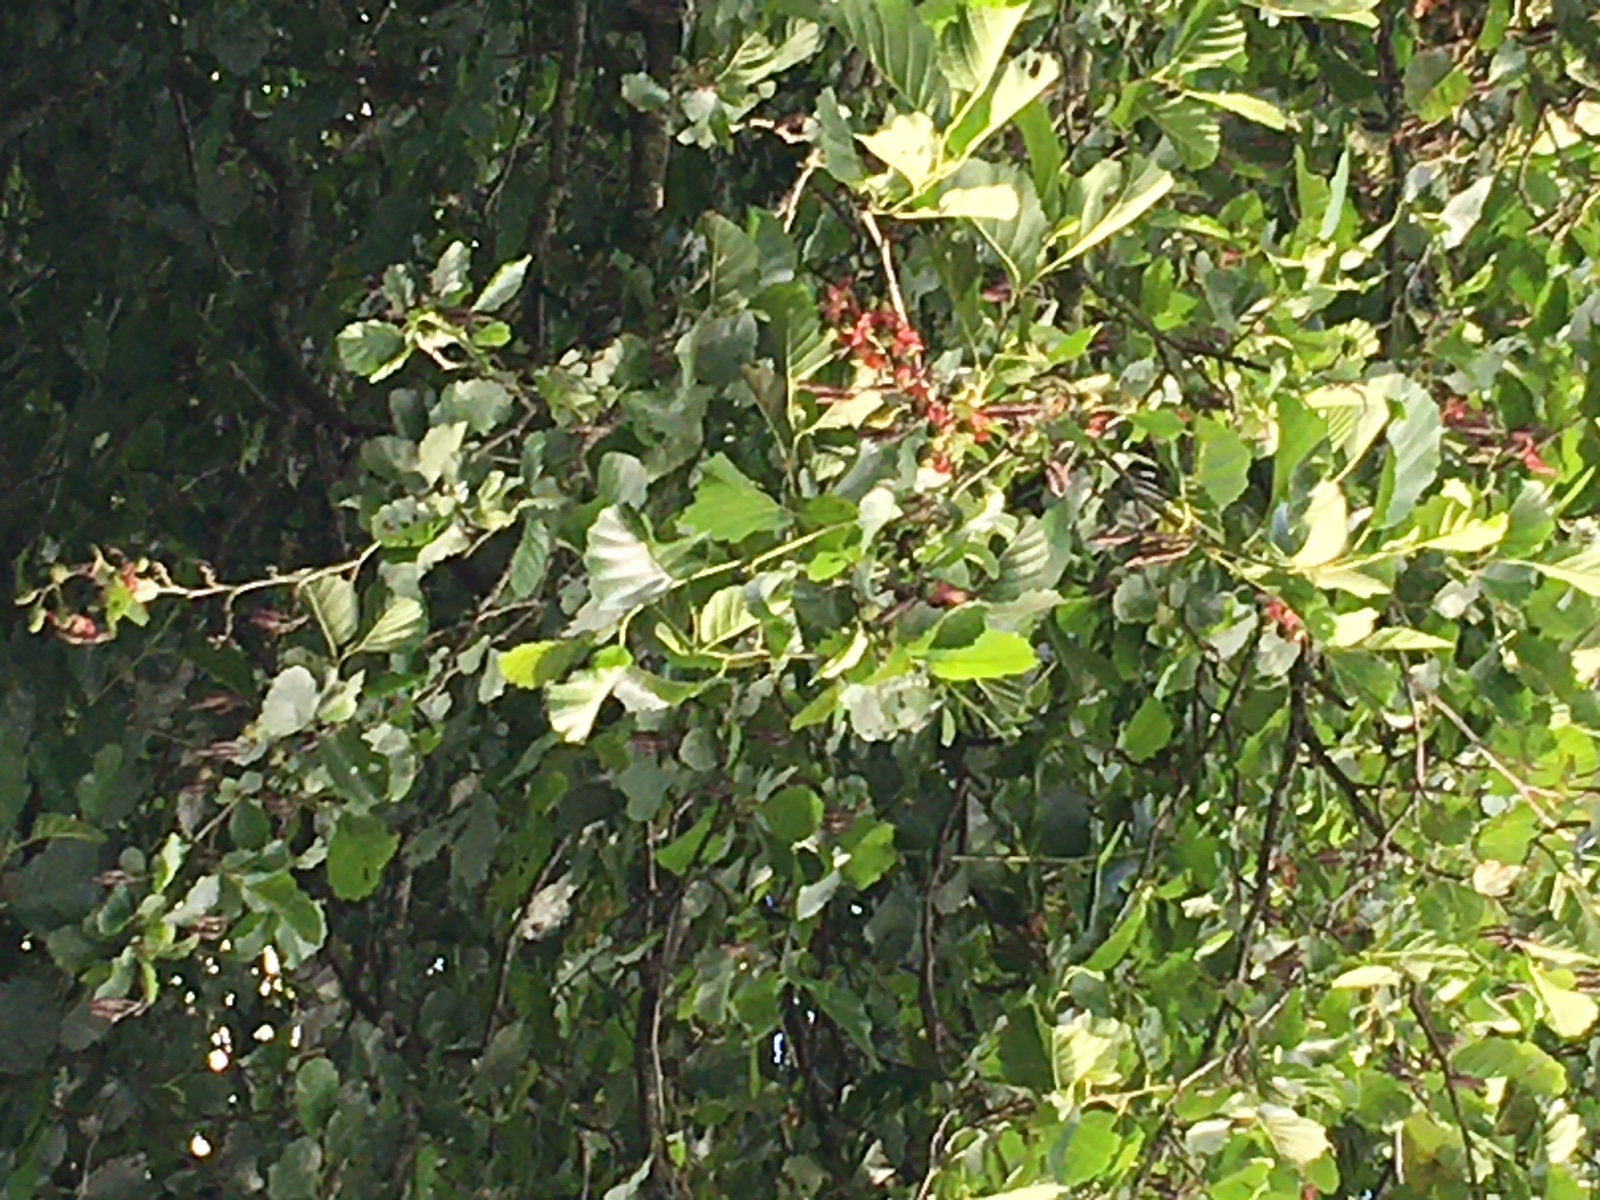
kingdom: Fungi
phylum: Ascomycota
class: Taphrinomycetes
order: Taphrinales
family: Taphrinaceae
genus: Taphrina
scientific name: Taphrina alni
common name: Alder tongue
